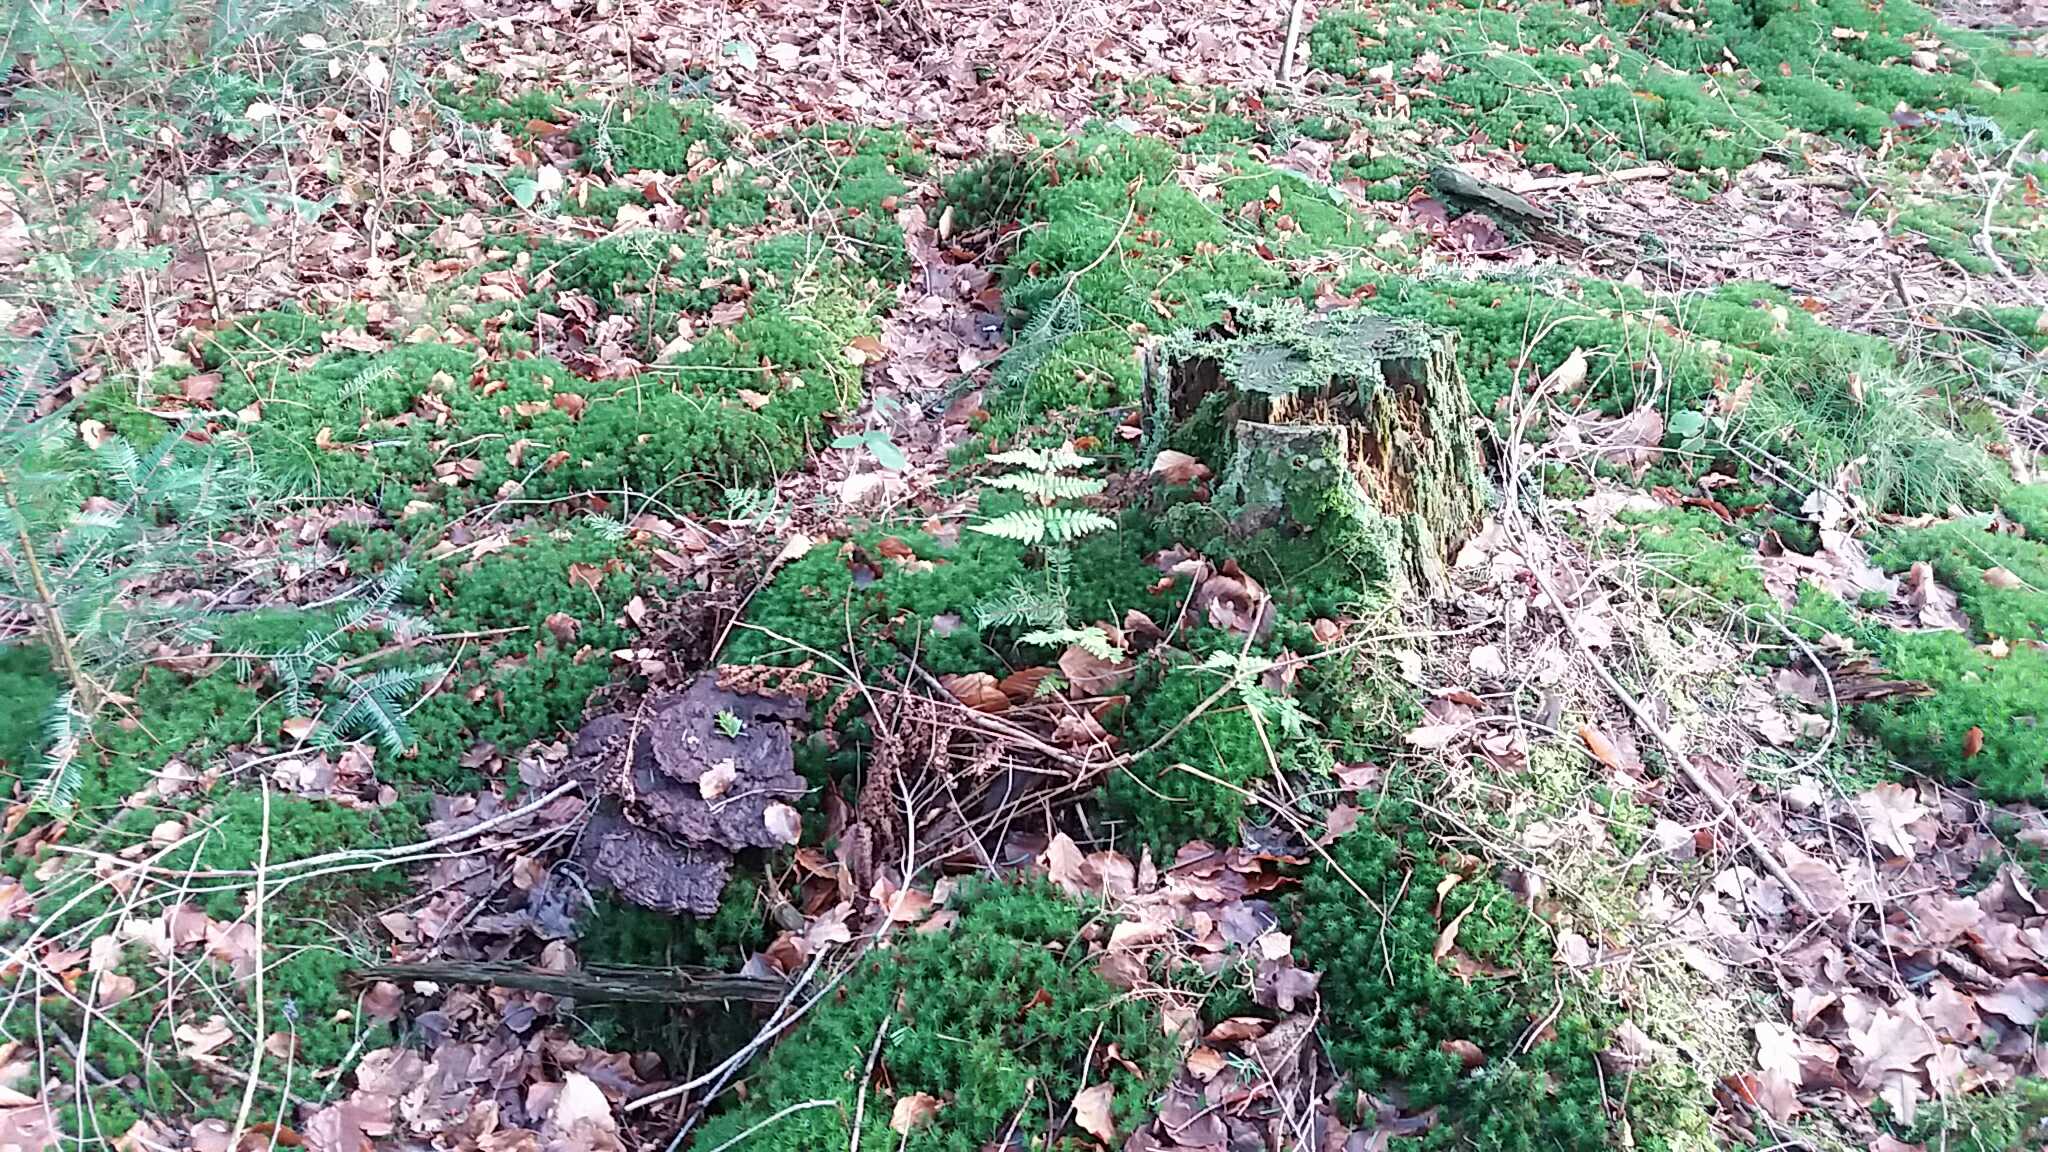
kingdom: Fungi
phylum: Basidiomycota
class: Agaricomycetes
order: Polyporales
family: Laetiporaceae
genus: Phaeolus
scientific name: Phaeolus schweinitzii
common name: brunporesvamp
